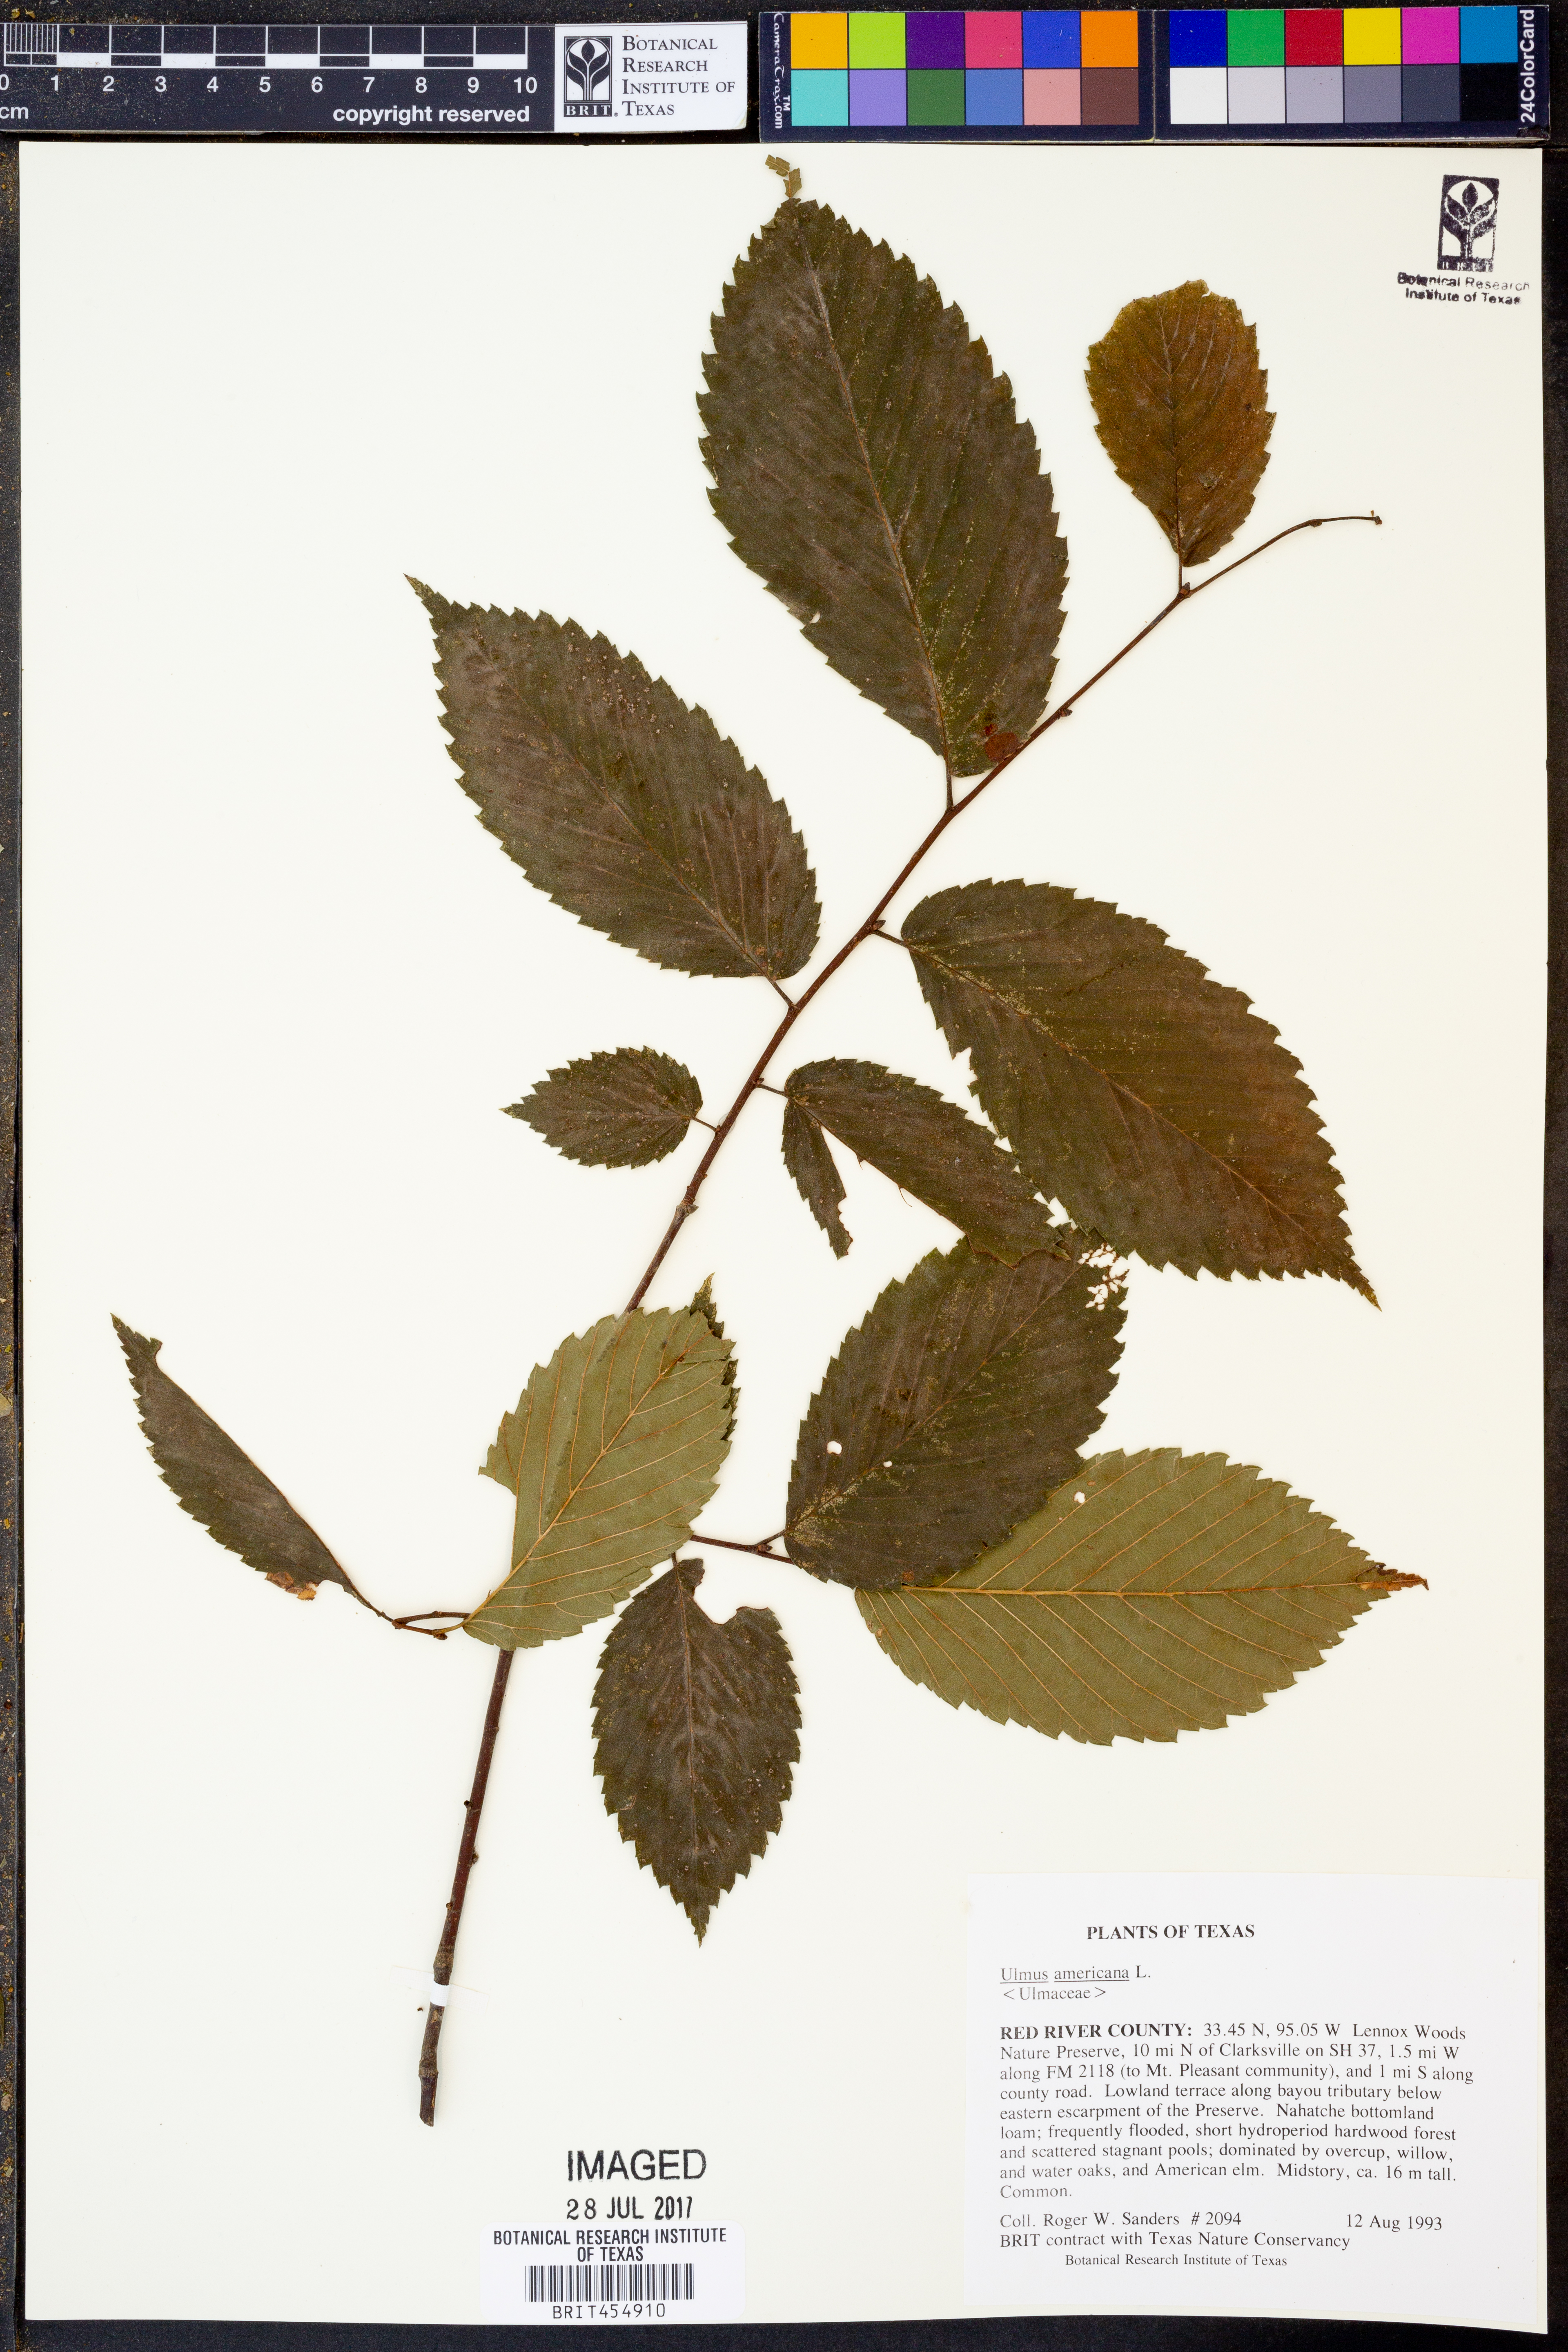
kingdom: Plantae
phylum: Tracheophyta
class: Magnoliopsida
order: Rosales
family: Ulmaceae
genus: Ulmus
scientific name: Ulmus americana
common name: American elm
